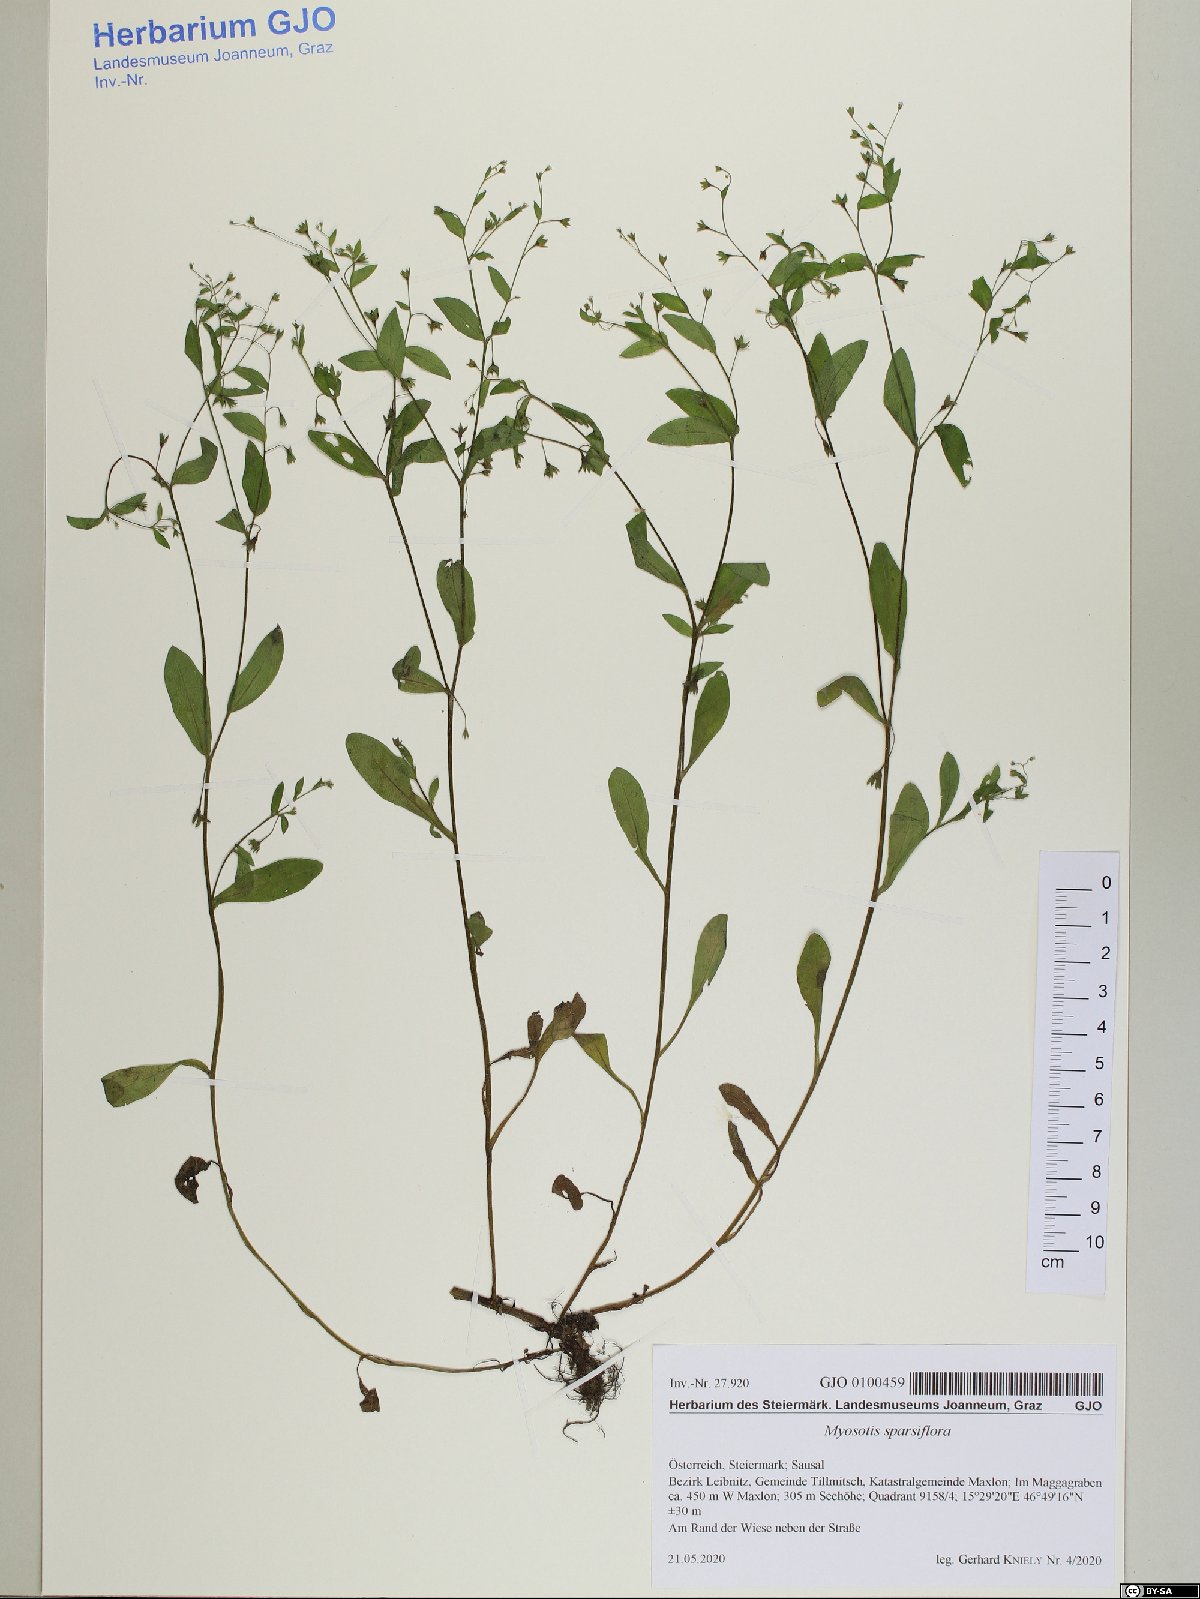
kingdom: Plantae
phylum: Tracheophyta
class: Magnoliopsida
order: Boraginales
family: Boraginaceae
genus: Myosotis
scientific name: Myosotis sparsiflora
